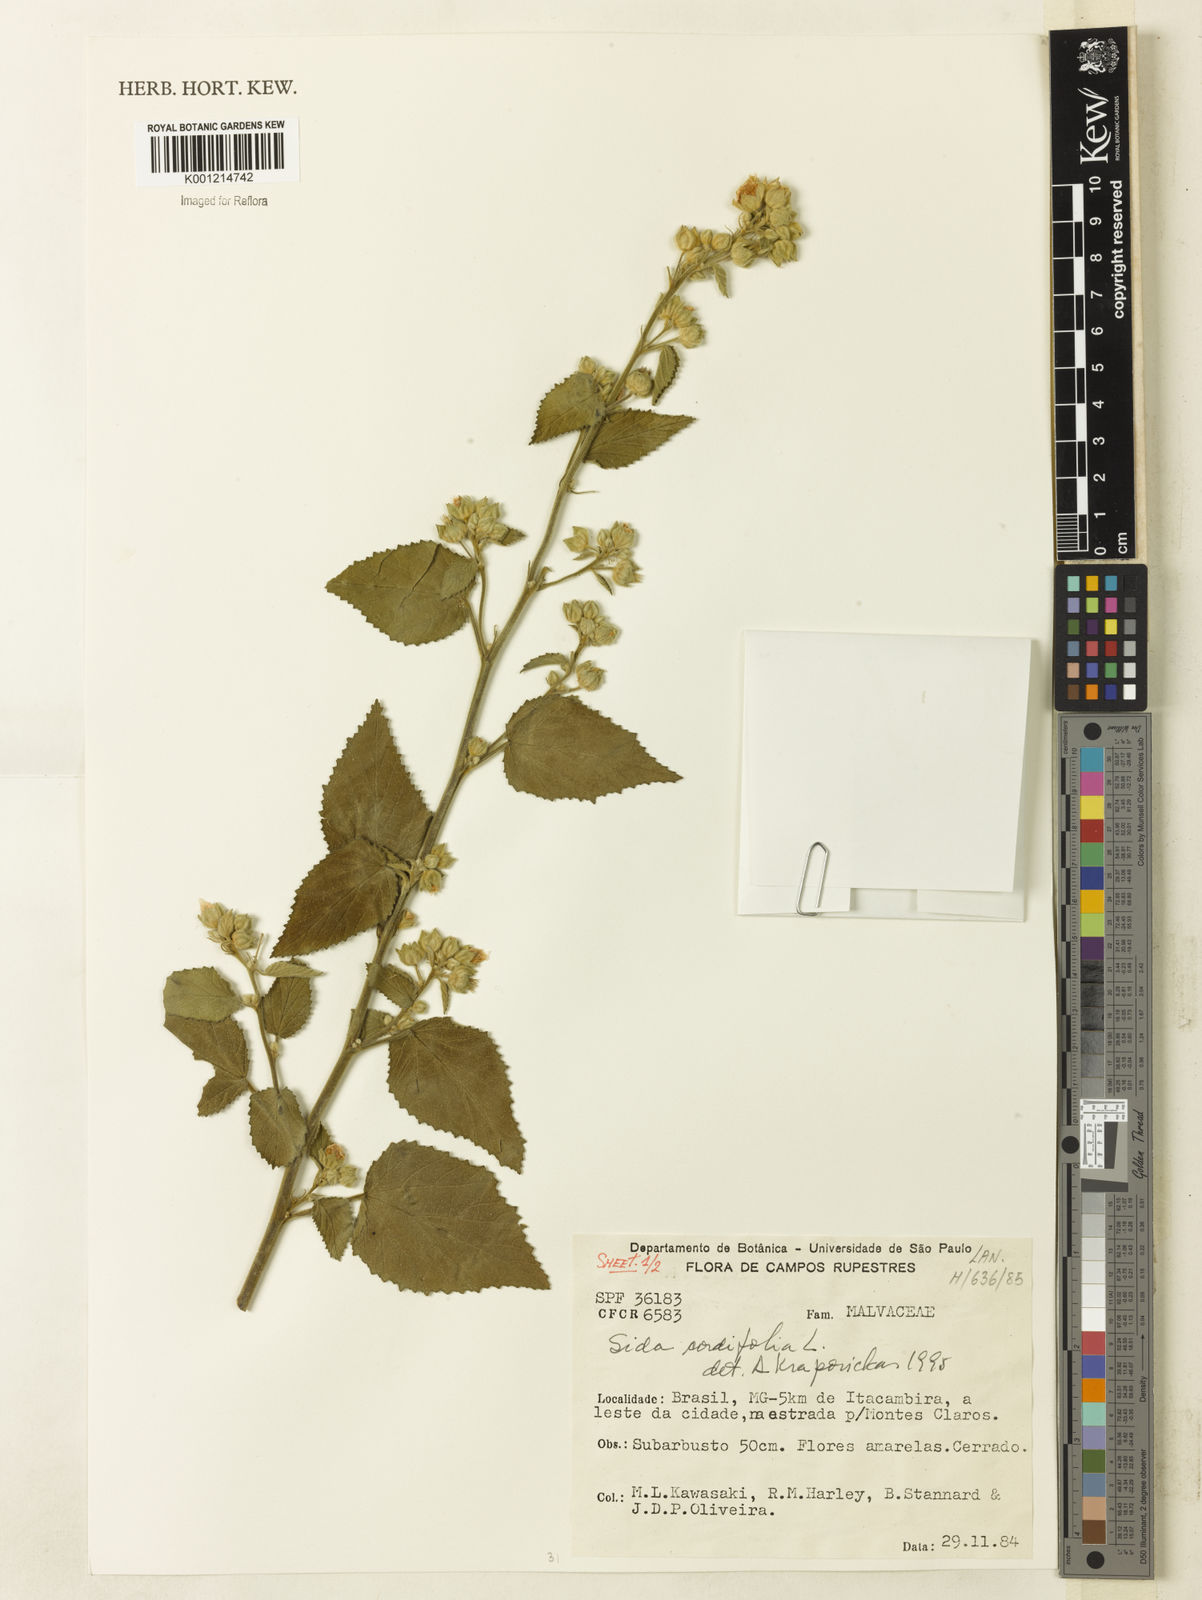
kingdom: Plantae
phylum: Tracheophyta
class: Magnoliopsida
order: Malvales
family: Malvaceae
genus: Sida
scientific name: Sida cordifolia
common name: Ilima
